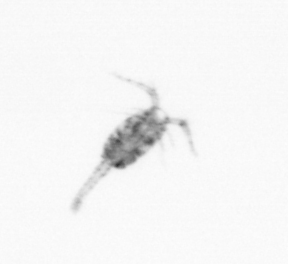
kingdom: Animalia
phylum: Arthropoda
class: Copepoda
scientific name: Copepoda
